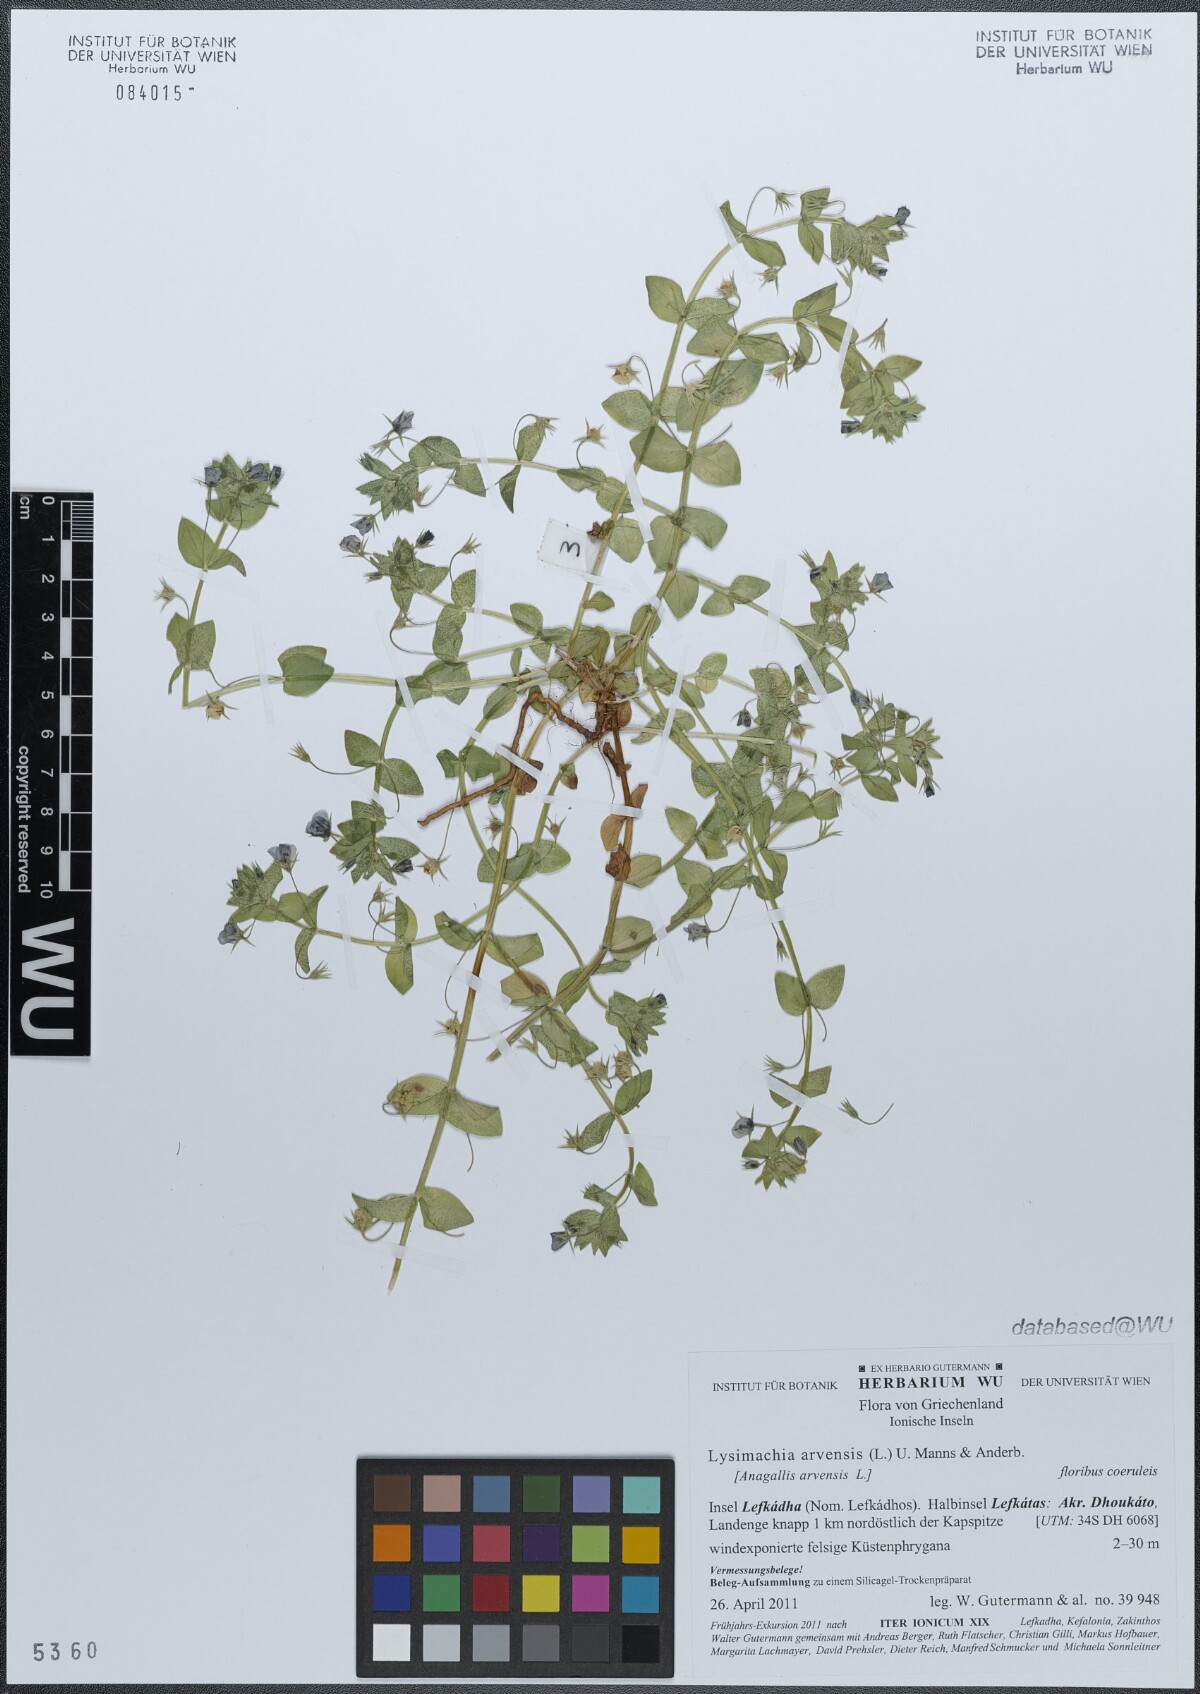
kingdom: Plantae
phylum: Tracheophyta
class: Magnoliopsida
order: Ericales
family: Primulaceae
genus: Lysimachia
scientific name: Lysimachia arvensis
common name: Scarlet pimpernel
